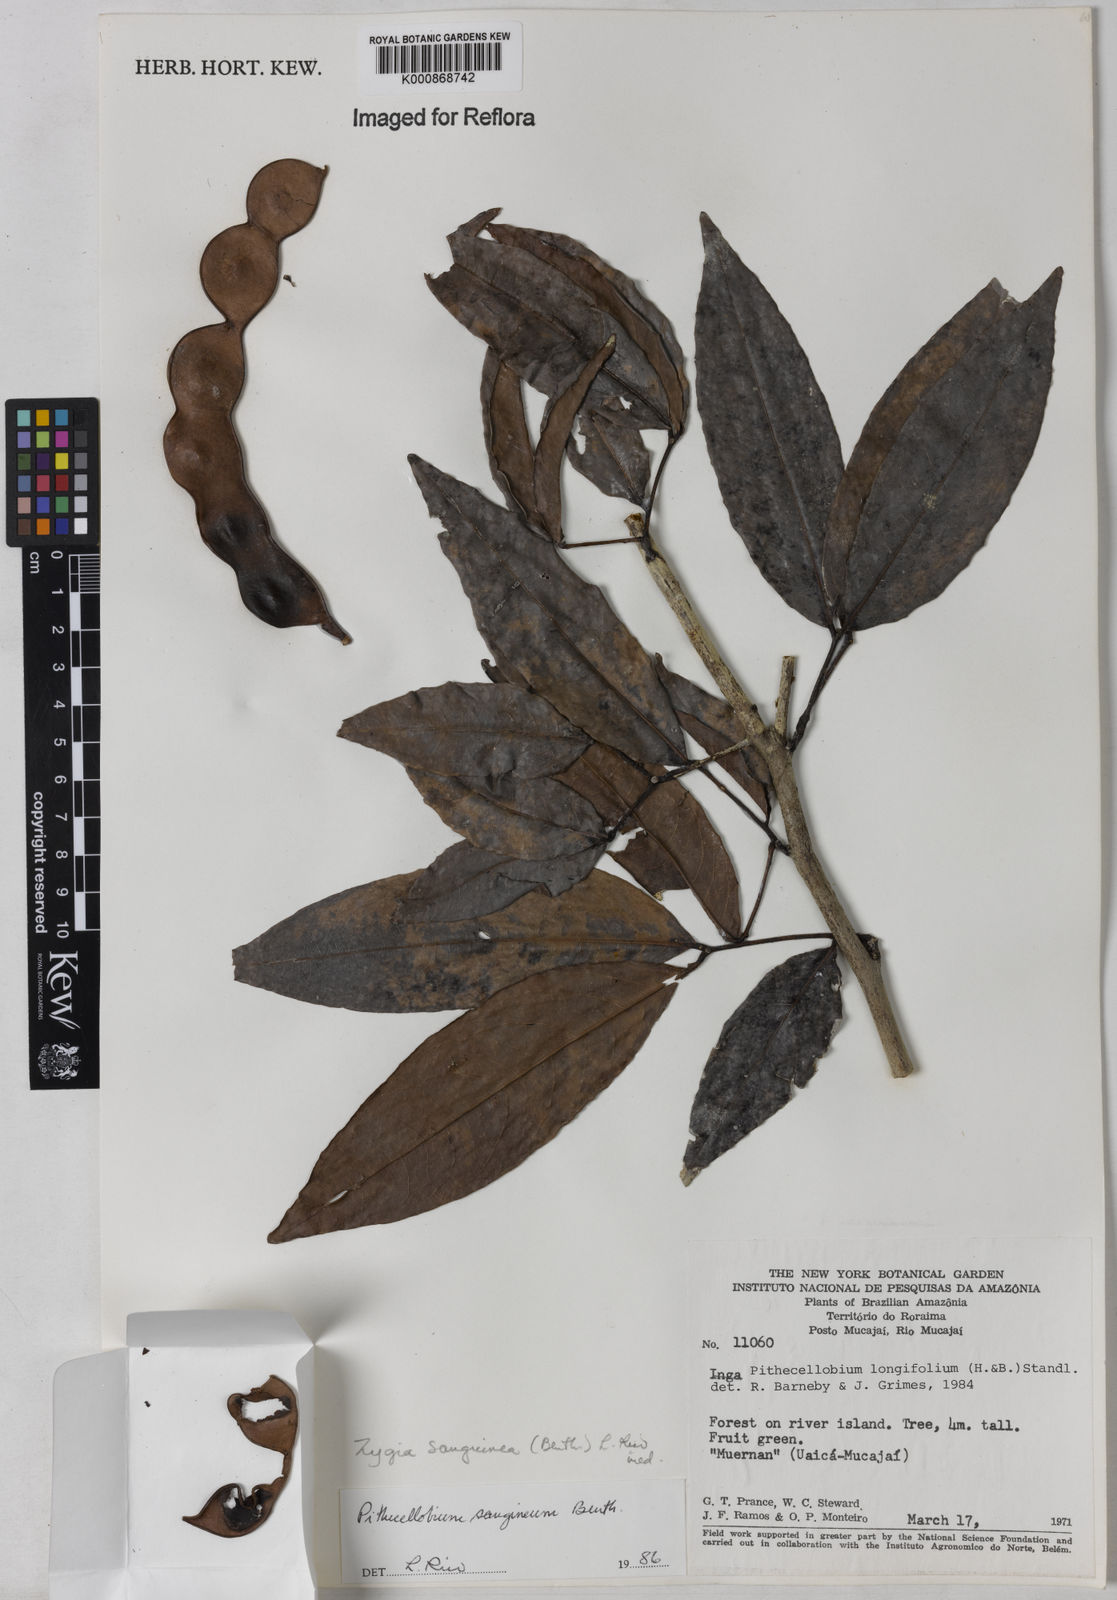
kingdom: Plantae
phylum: Tracheophyta
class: Magnoliopsida
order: Fabales
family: Fabaceae
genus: Zygia
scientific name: Zygia selloi
